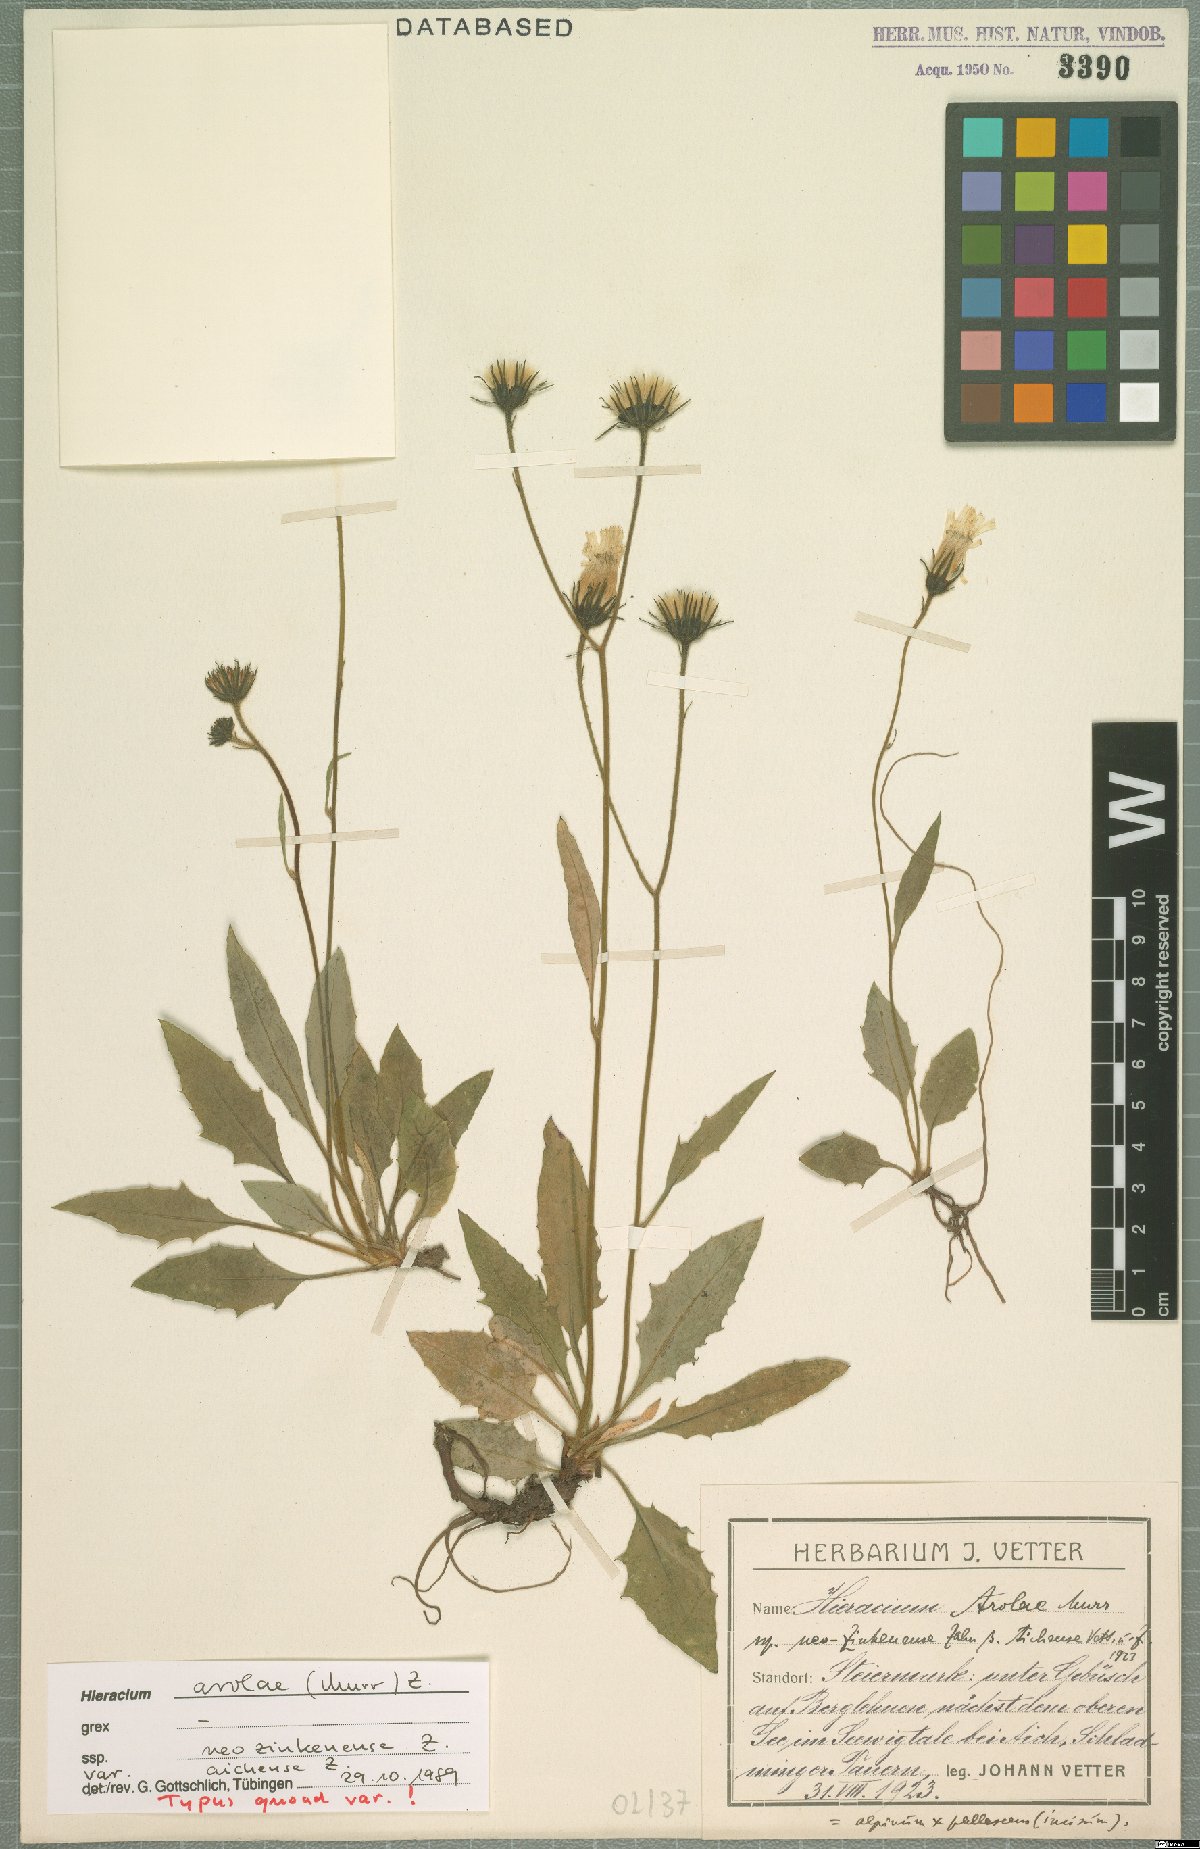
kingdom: Plantae
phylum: Tracheophyta
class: Magnoliopsida
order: Asterales
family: Asteraceae
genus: Hieracium
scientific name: Hieracium arolae
